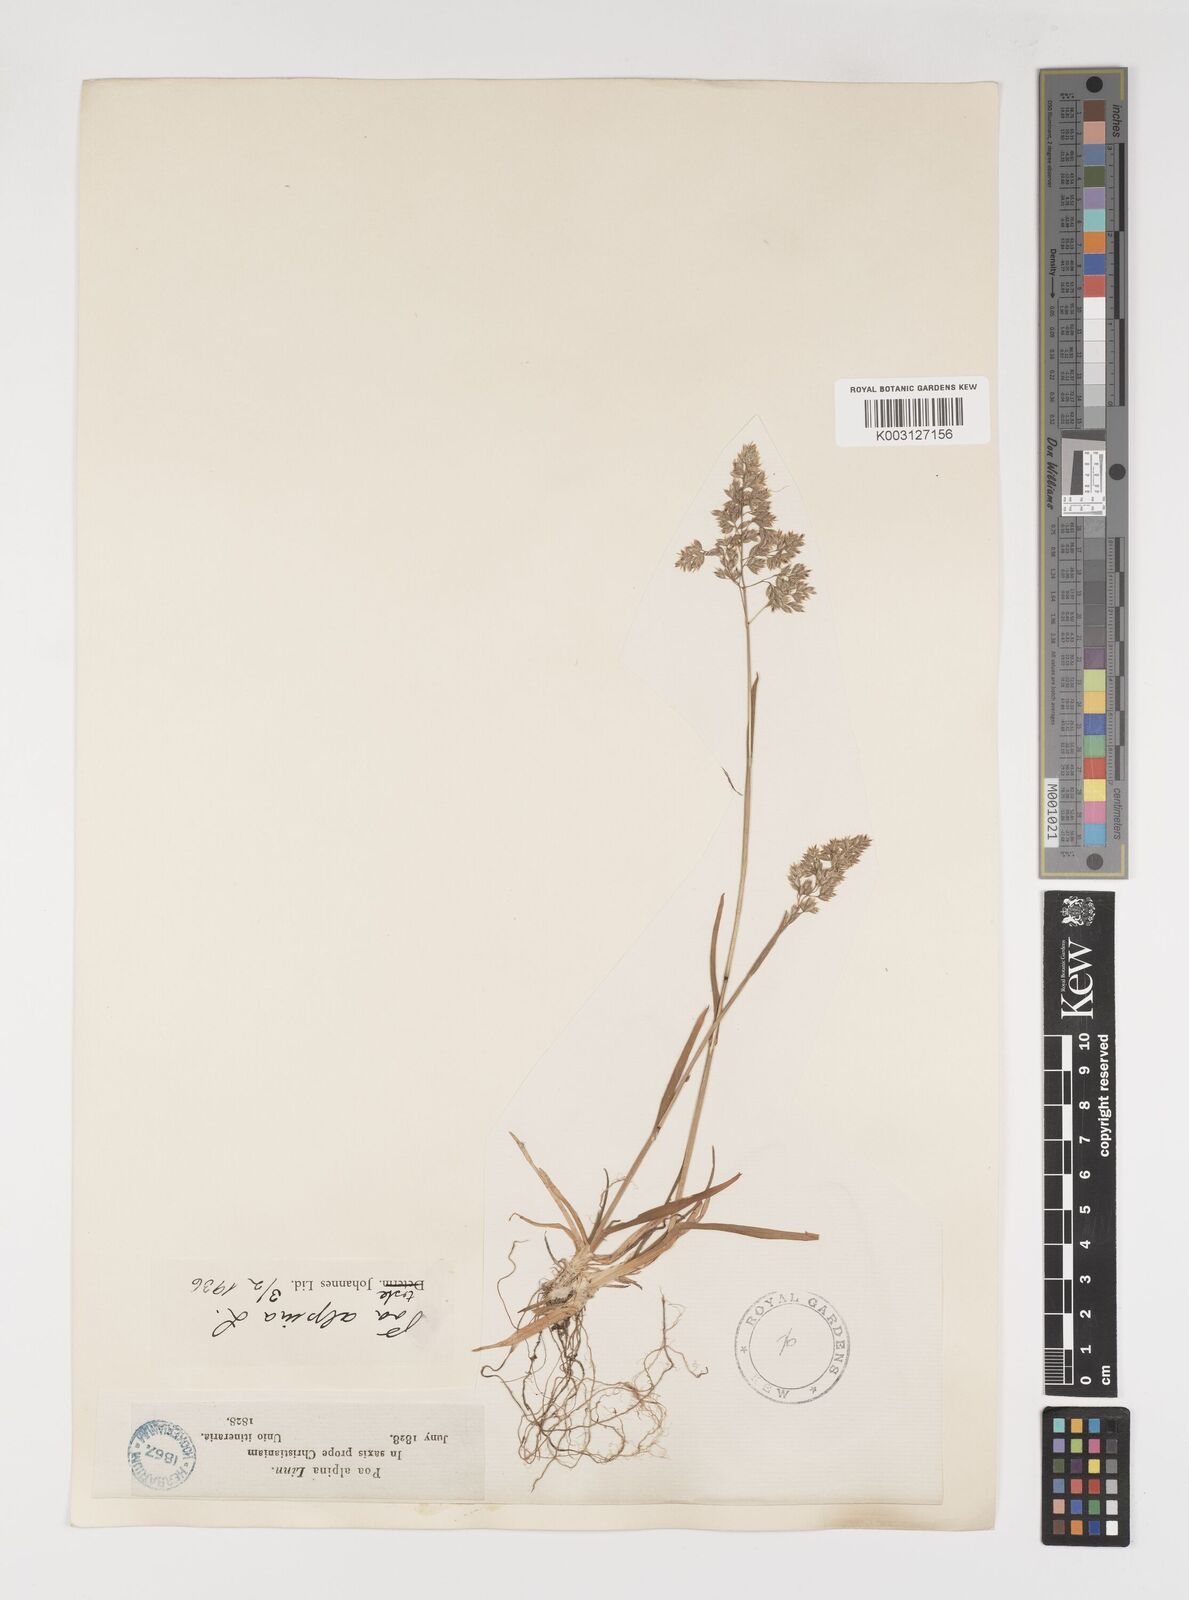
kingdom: Plantae
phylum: Tracheophyta
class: Liliopsida
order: Poales
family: Poaceae
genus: Poa
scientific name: Poa alpina
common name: Alpine bluegrass
